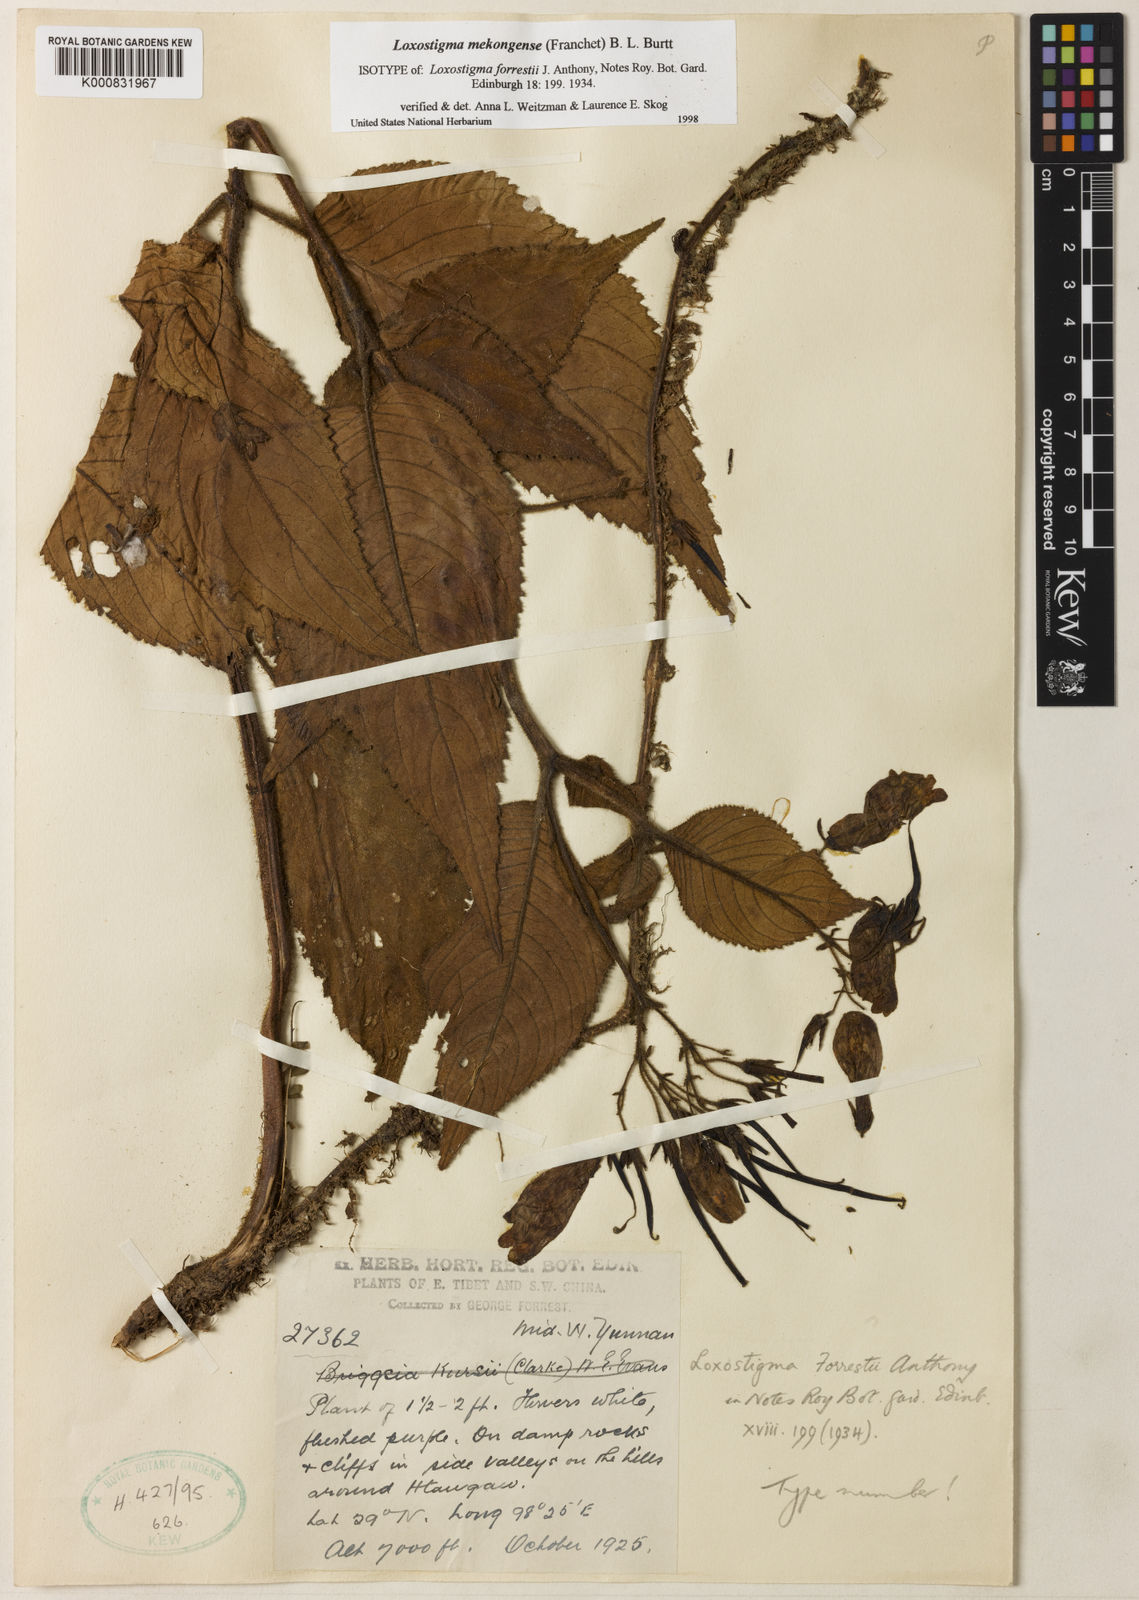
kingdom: Plantae
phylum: Tracheophyta
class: Magnoliopsida
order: Lamiales
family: Gesneriaceae
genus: Loxostigma
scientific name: Loxostigma mekongense
